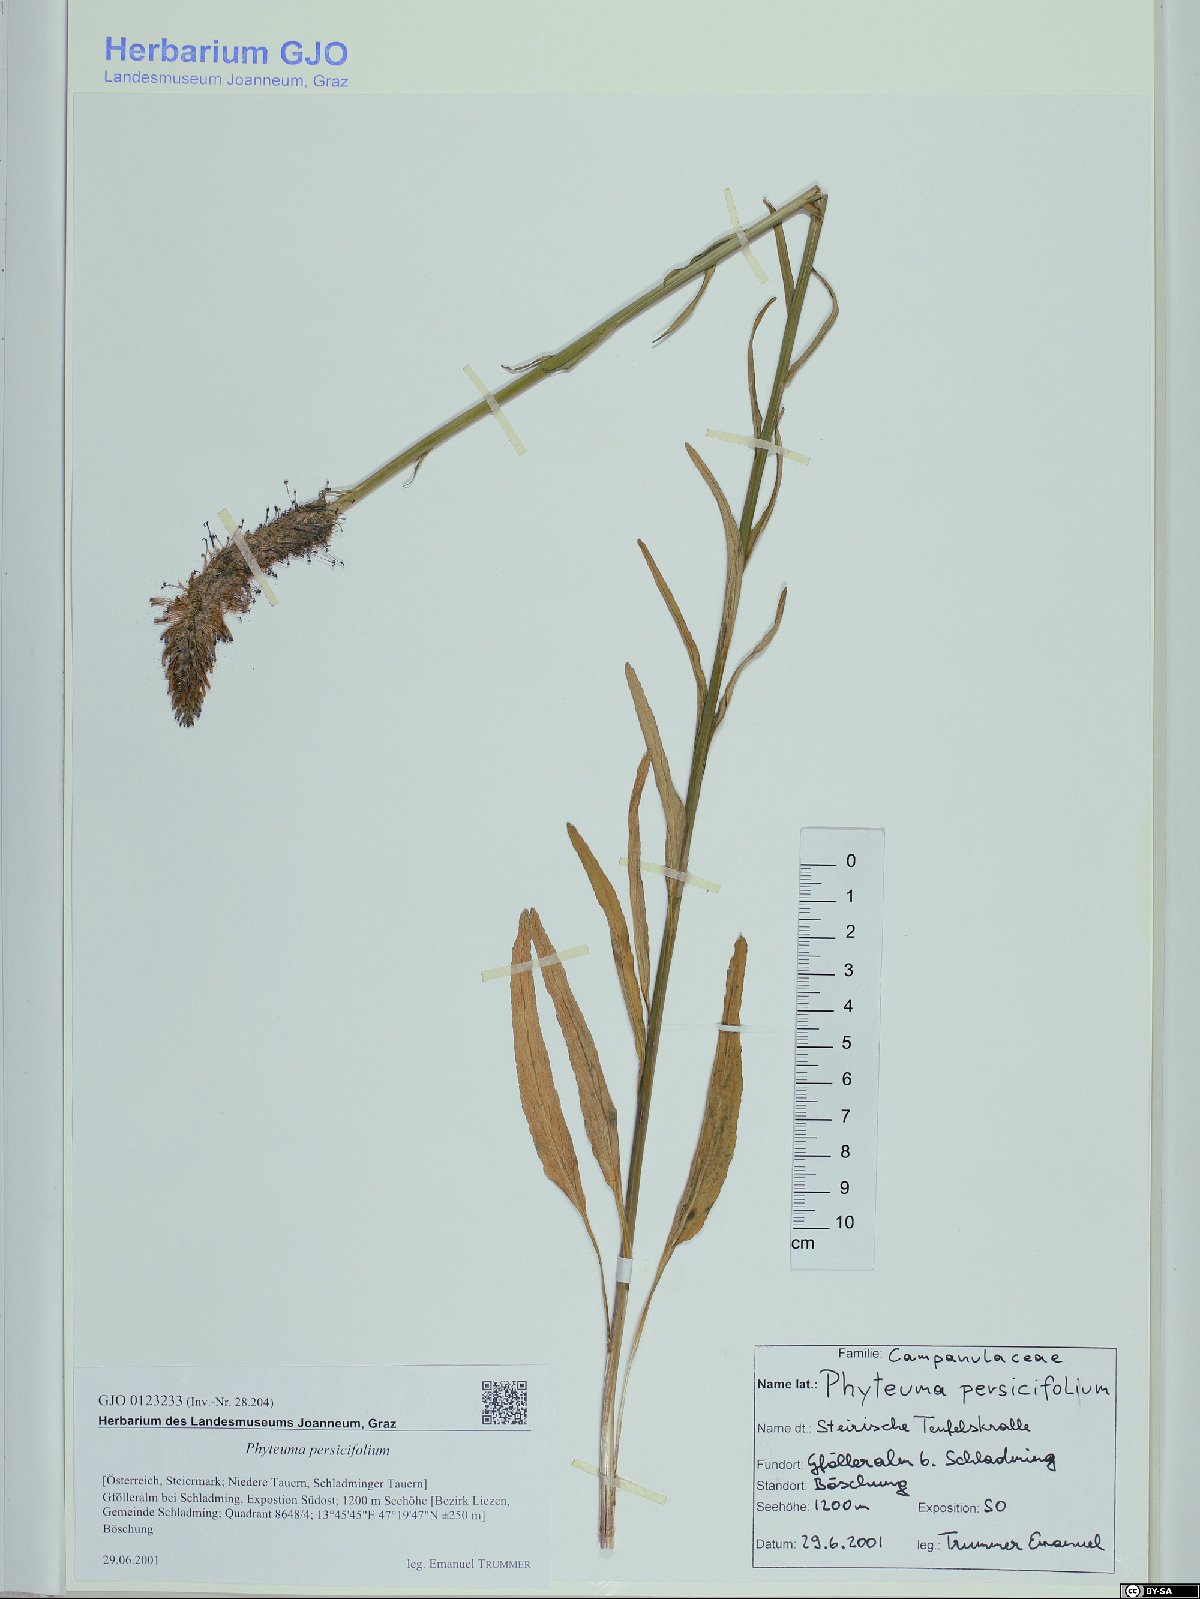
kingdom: Plantae
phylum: Tracheophyta
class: Magnoliopsida
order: Asterales
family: Campanulaceae
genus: Phyteuma
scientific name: Phyteuma persicifolium
